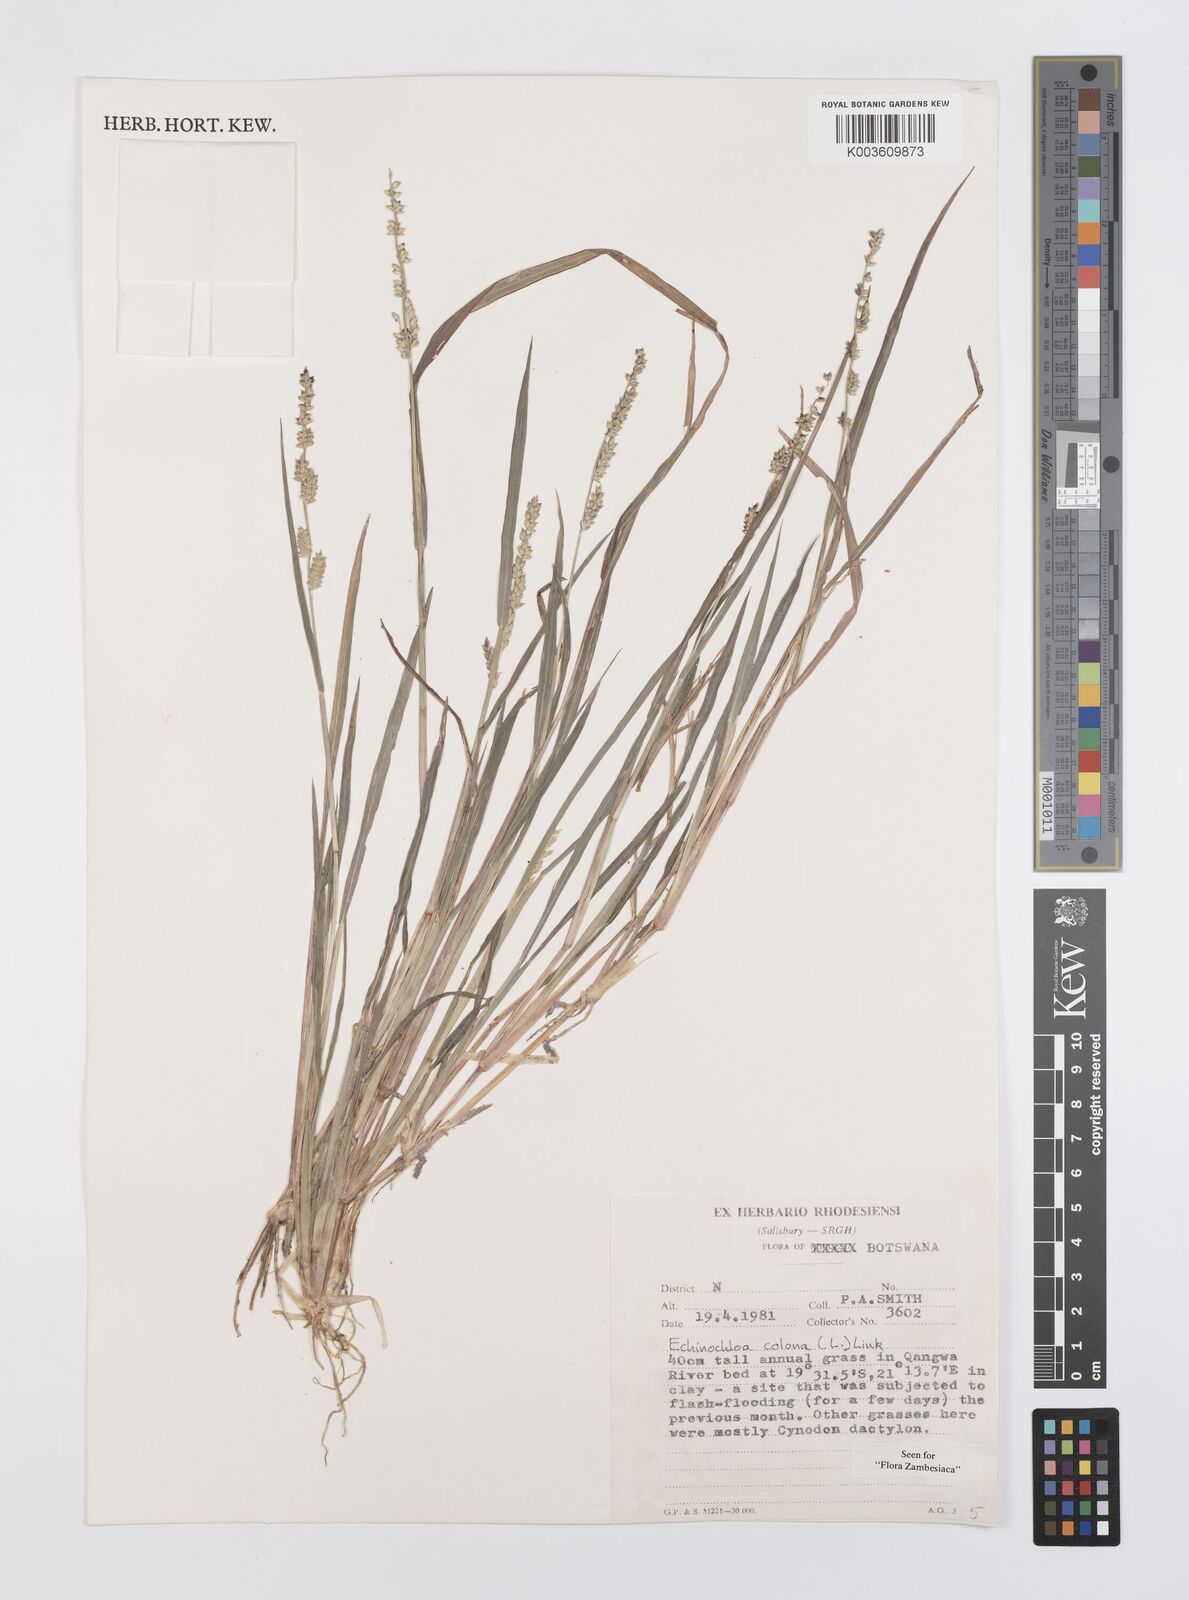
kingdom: Plantae
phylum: Tracheophyta
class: Liliopsida
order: Poales
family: Poaceae
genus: Echinochloa
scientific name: Echinochloa colonum
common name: Jungle rice
